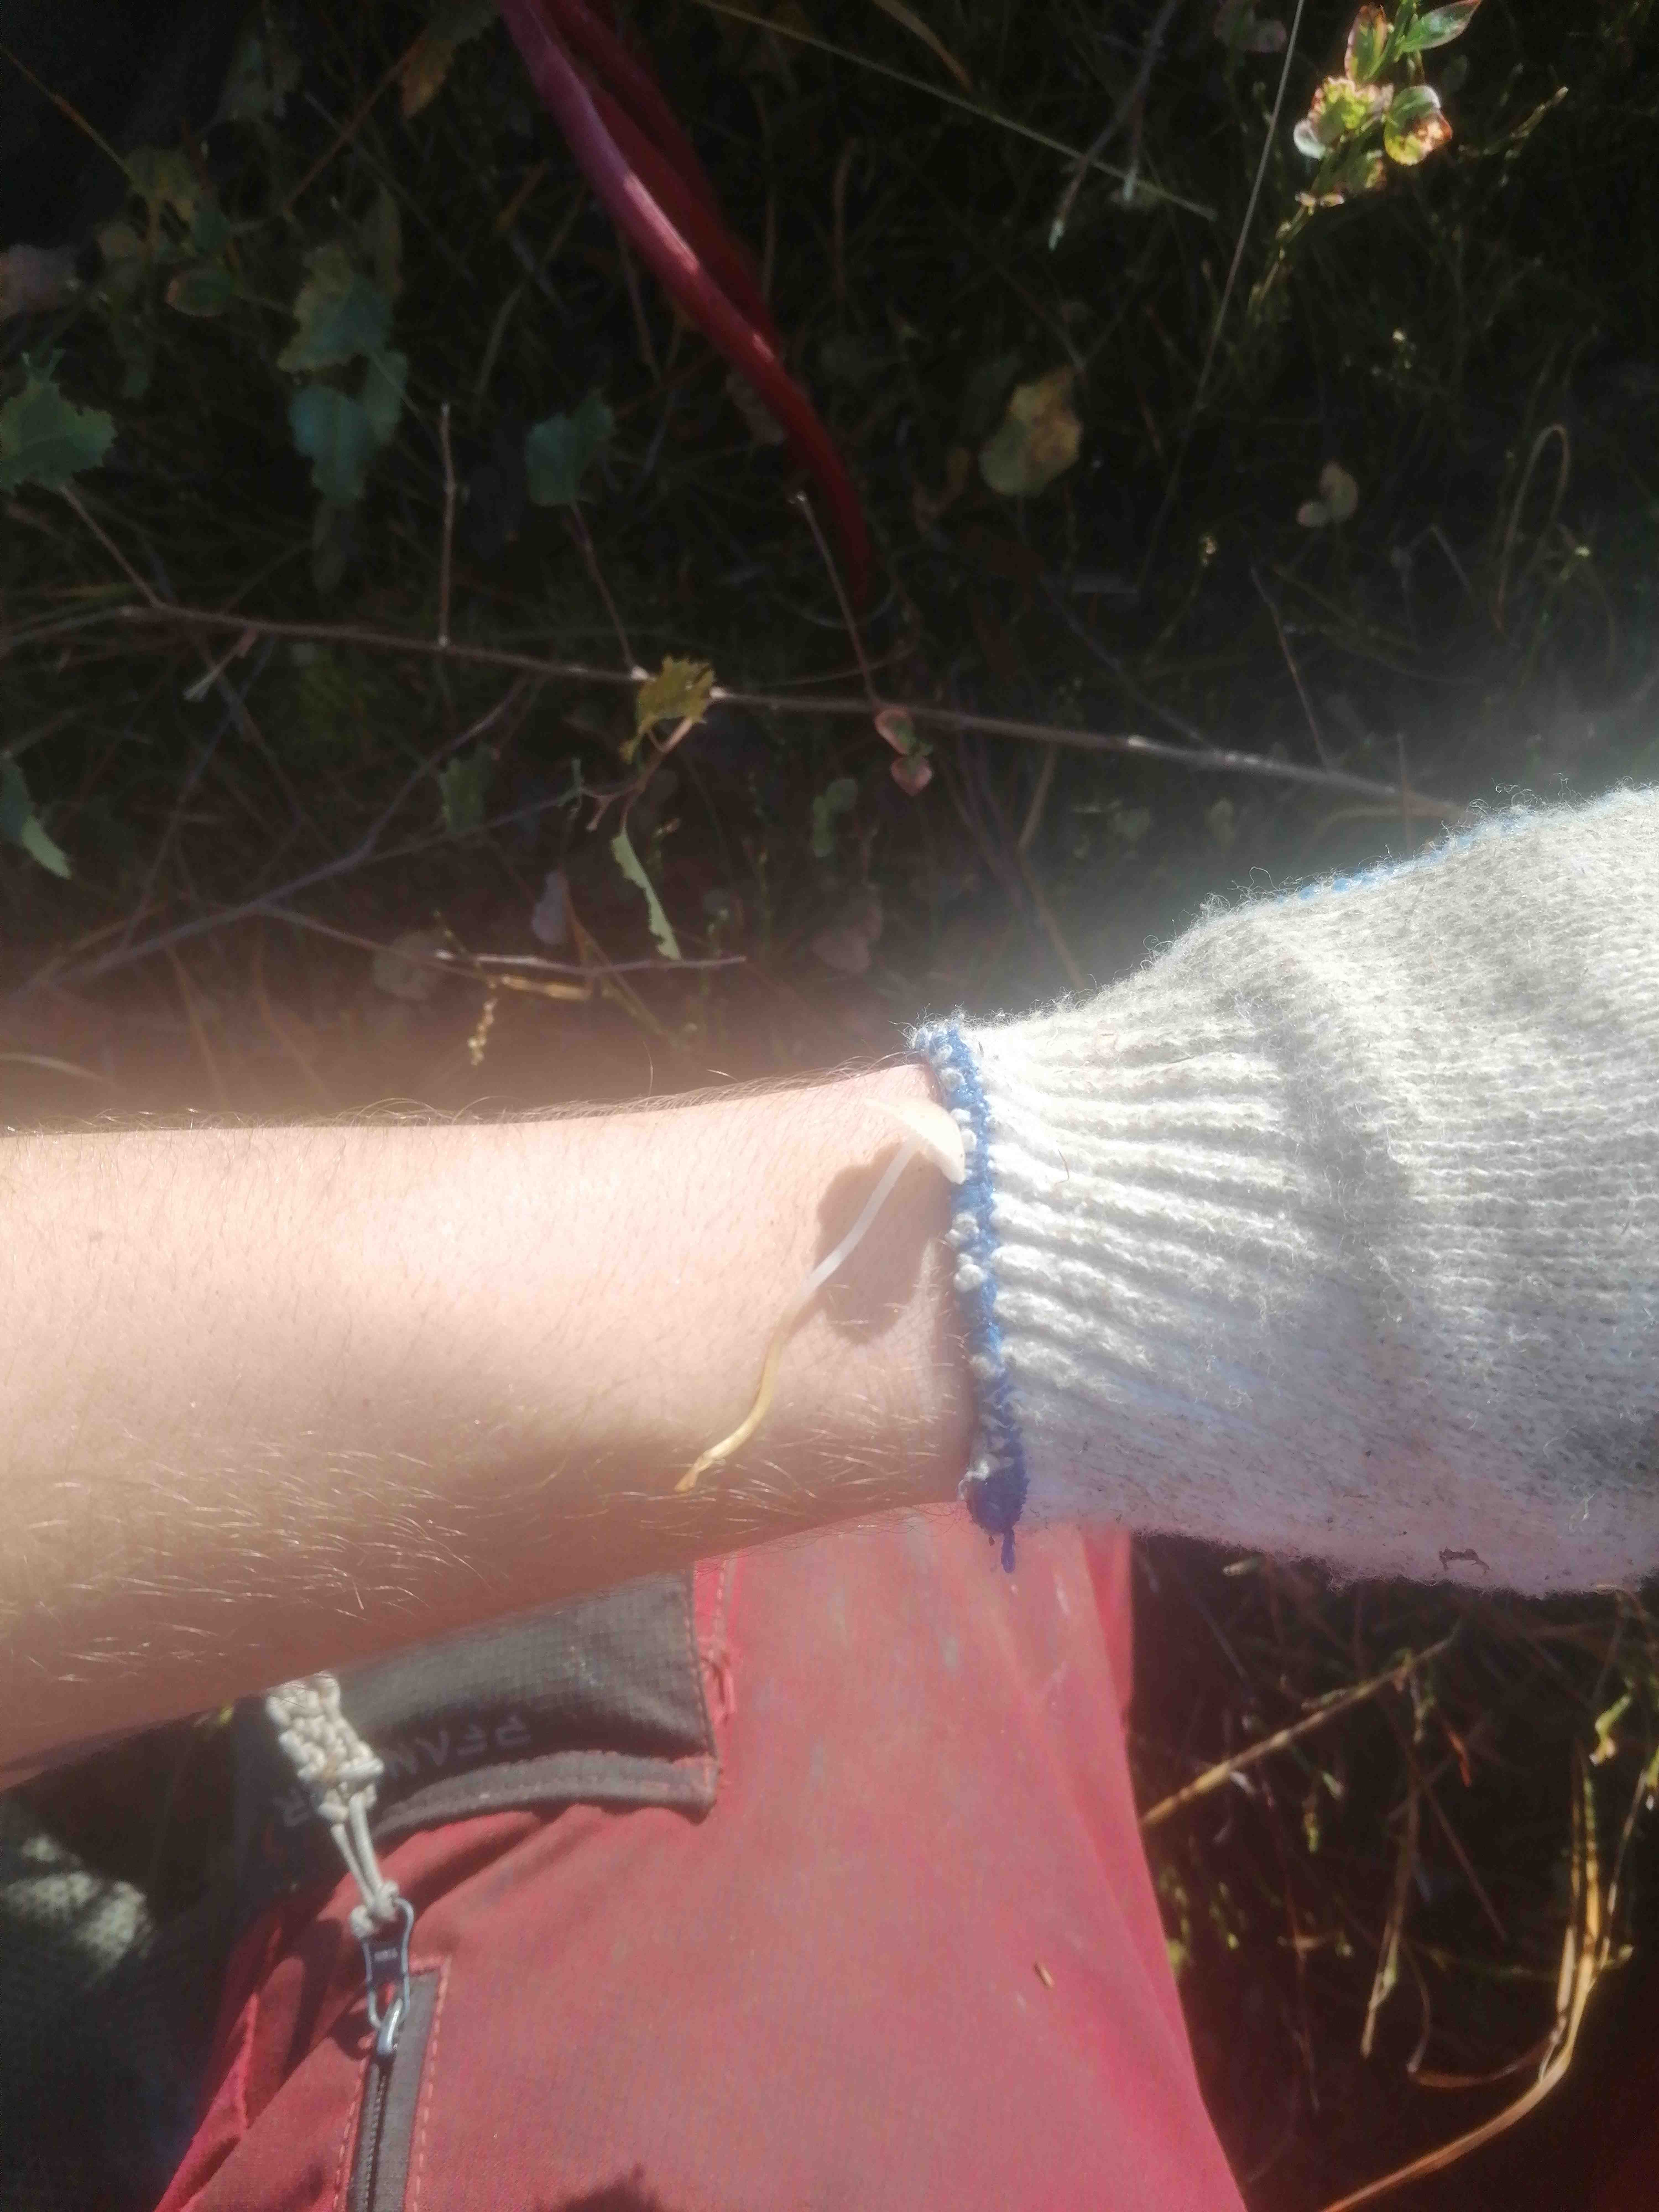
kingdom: Fungi
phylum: Basidiomycota
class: Agaricomycetes
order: Agaricales
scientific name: Agaricales
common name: champignonordenen
